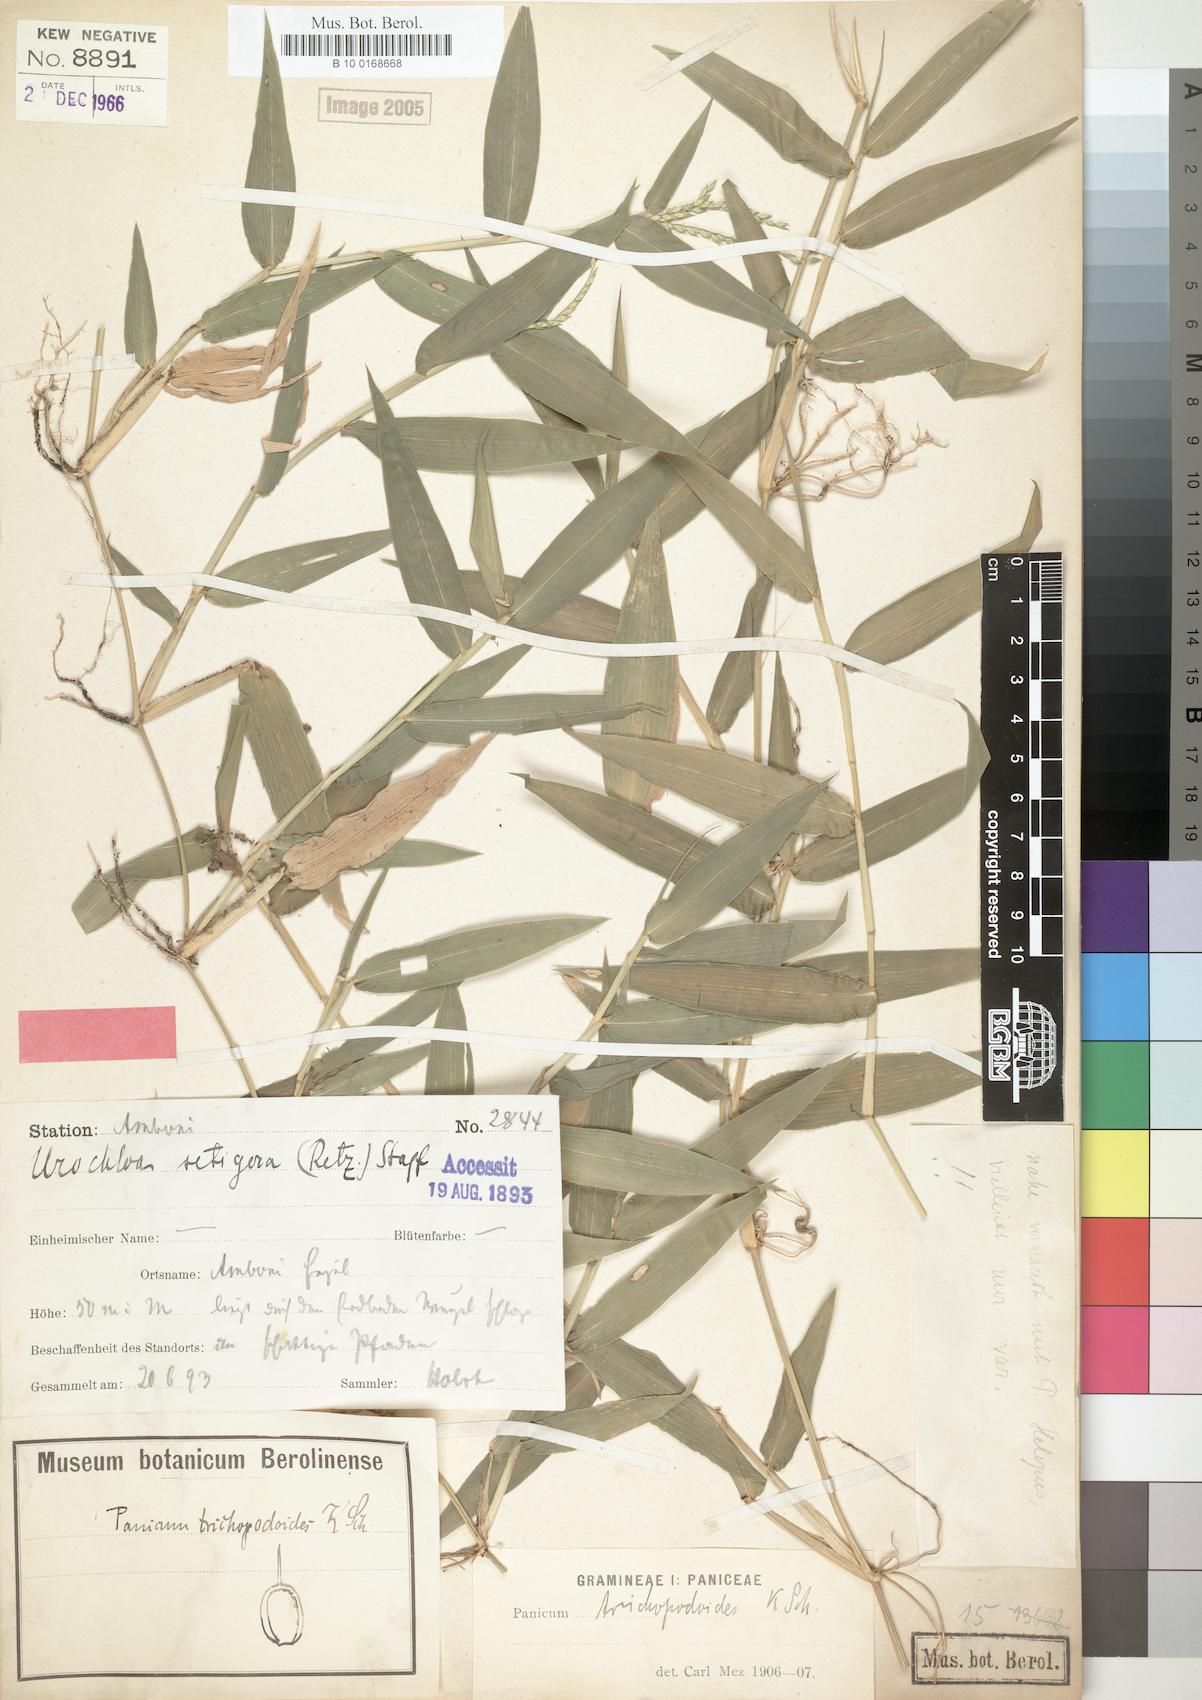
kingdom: Plantae
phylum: Tracheophyta
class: Liliopsida
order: Poales
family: Poaceae
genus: Urochloa
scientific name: Urochloa trichopodioides
